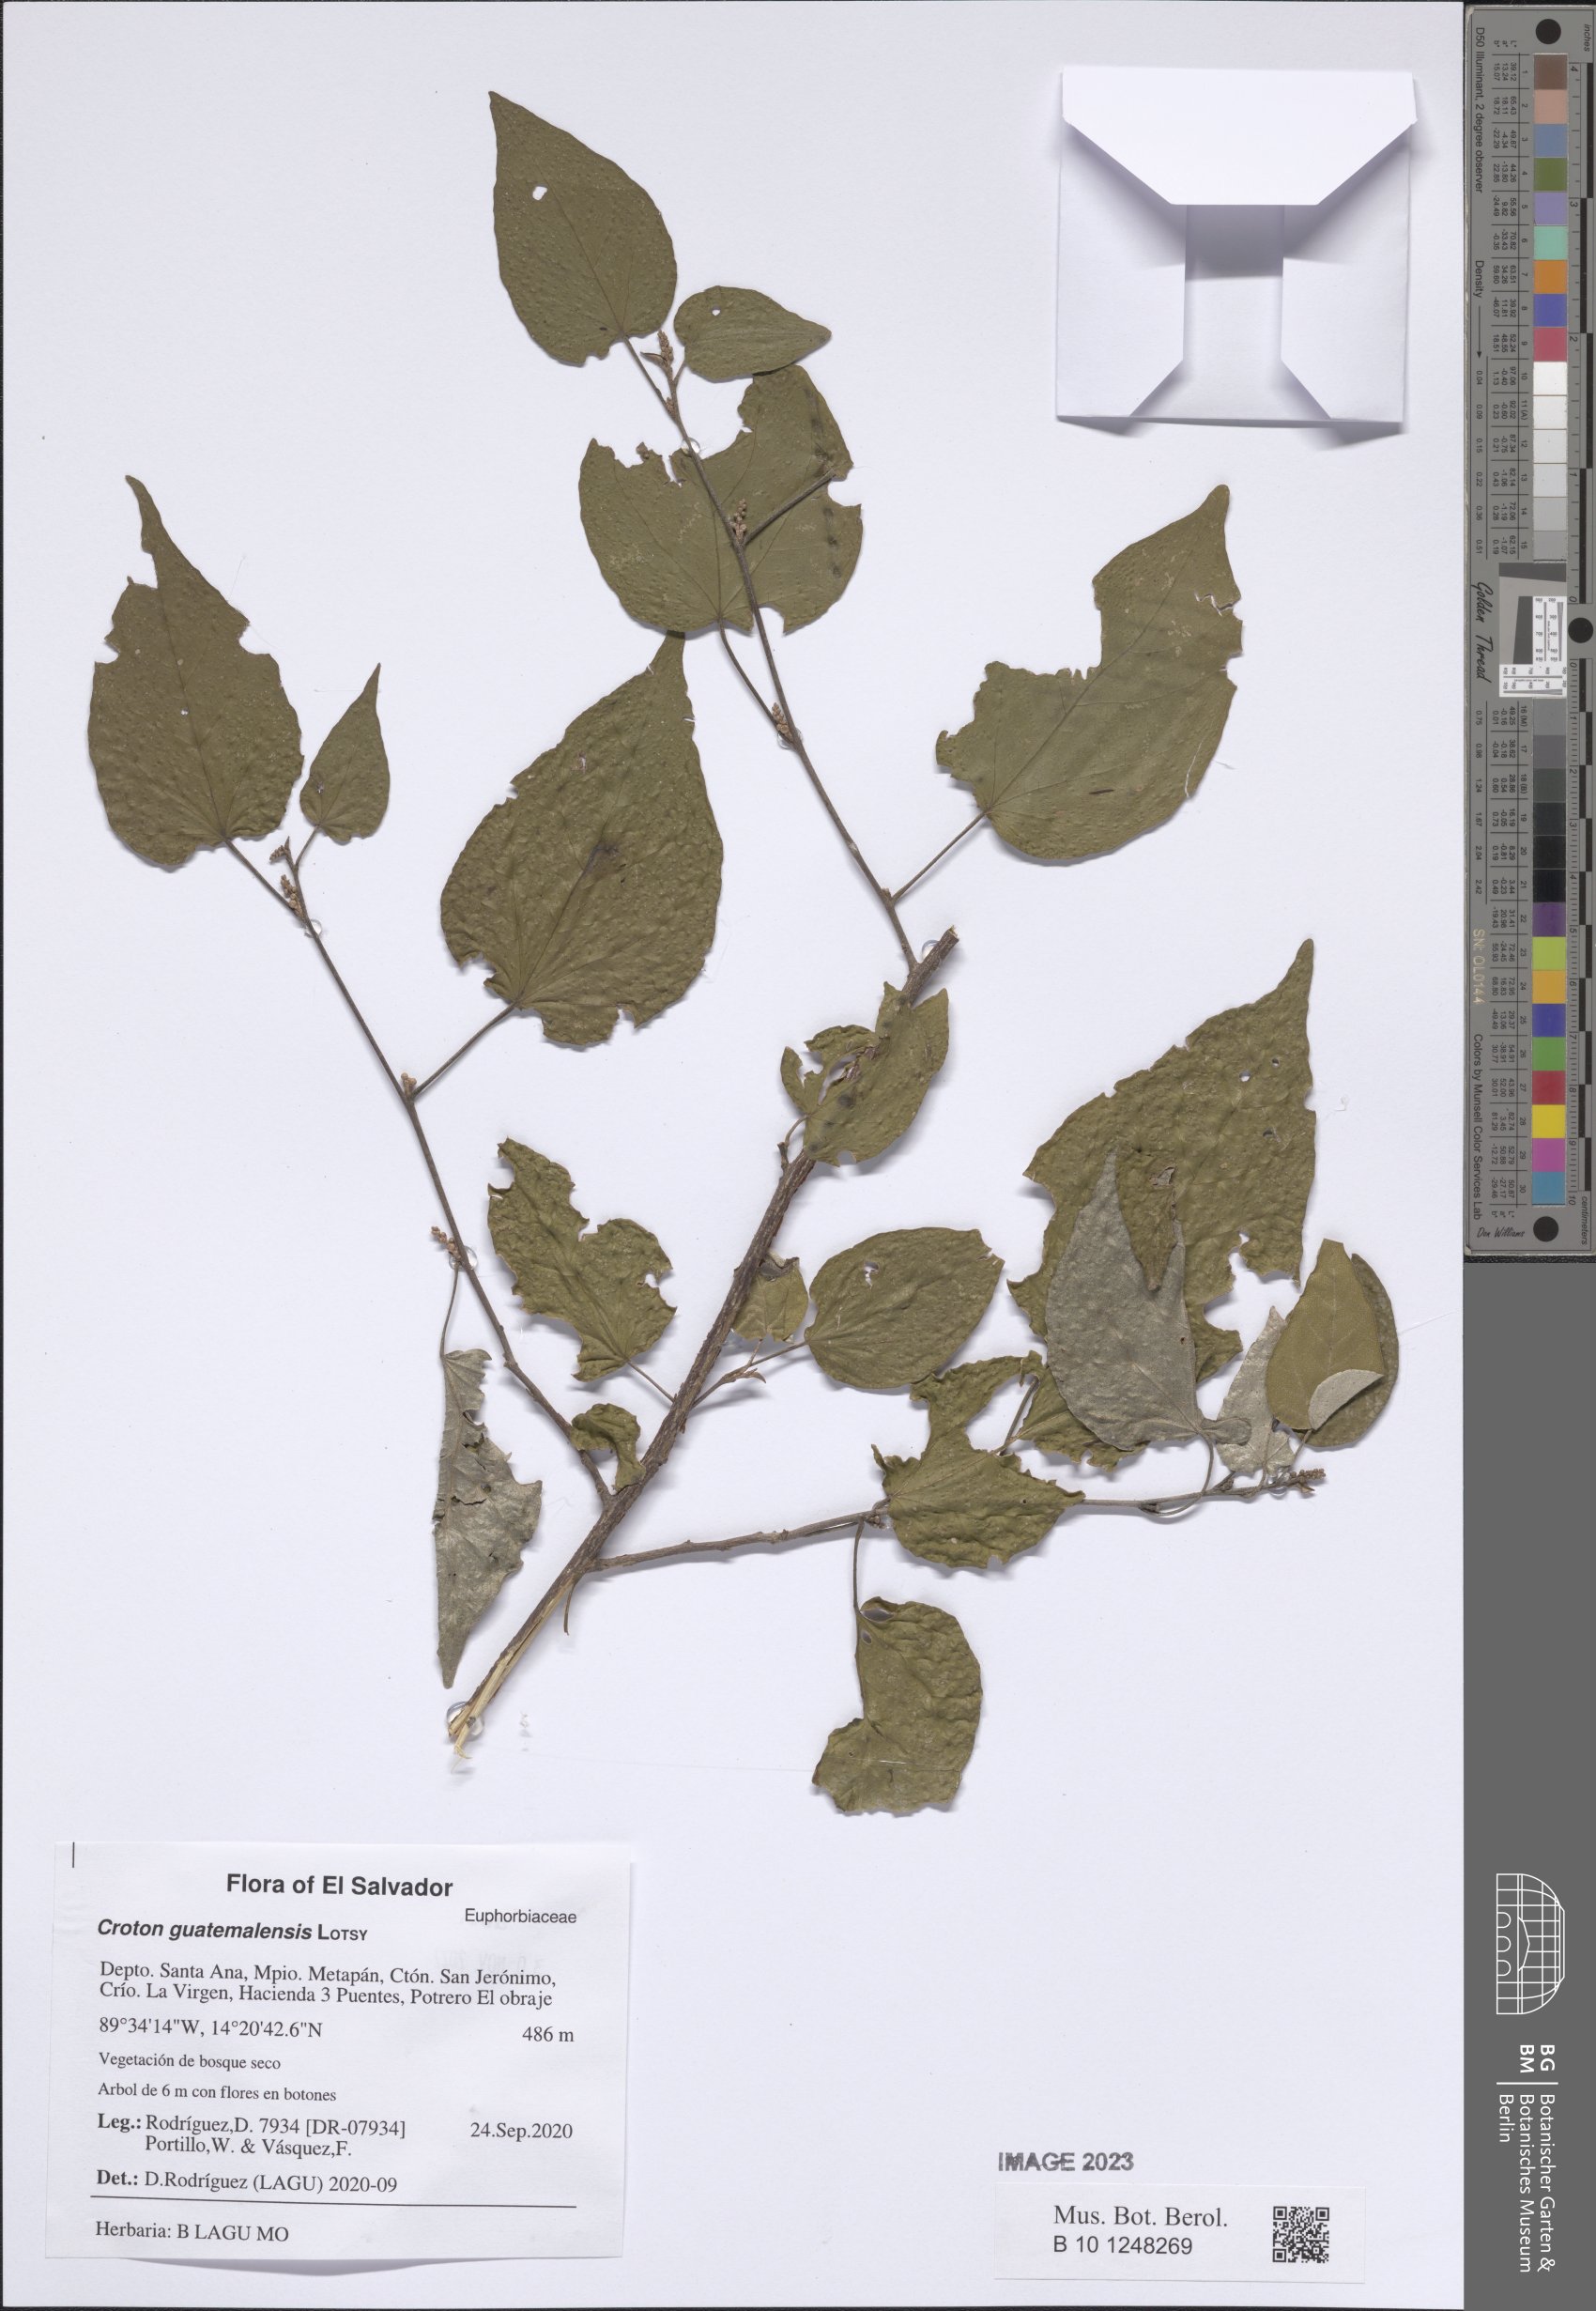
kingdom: Plantae
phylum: Tracheophyta
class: Magnoliopsida
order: Malpighiales
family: Euphorbiaceae
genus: Croton
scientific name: Croton guatemalensis
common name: Copalchi
